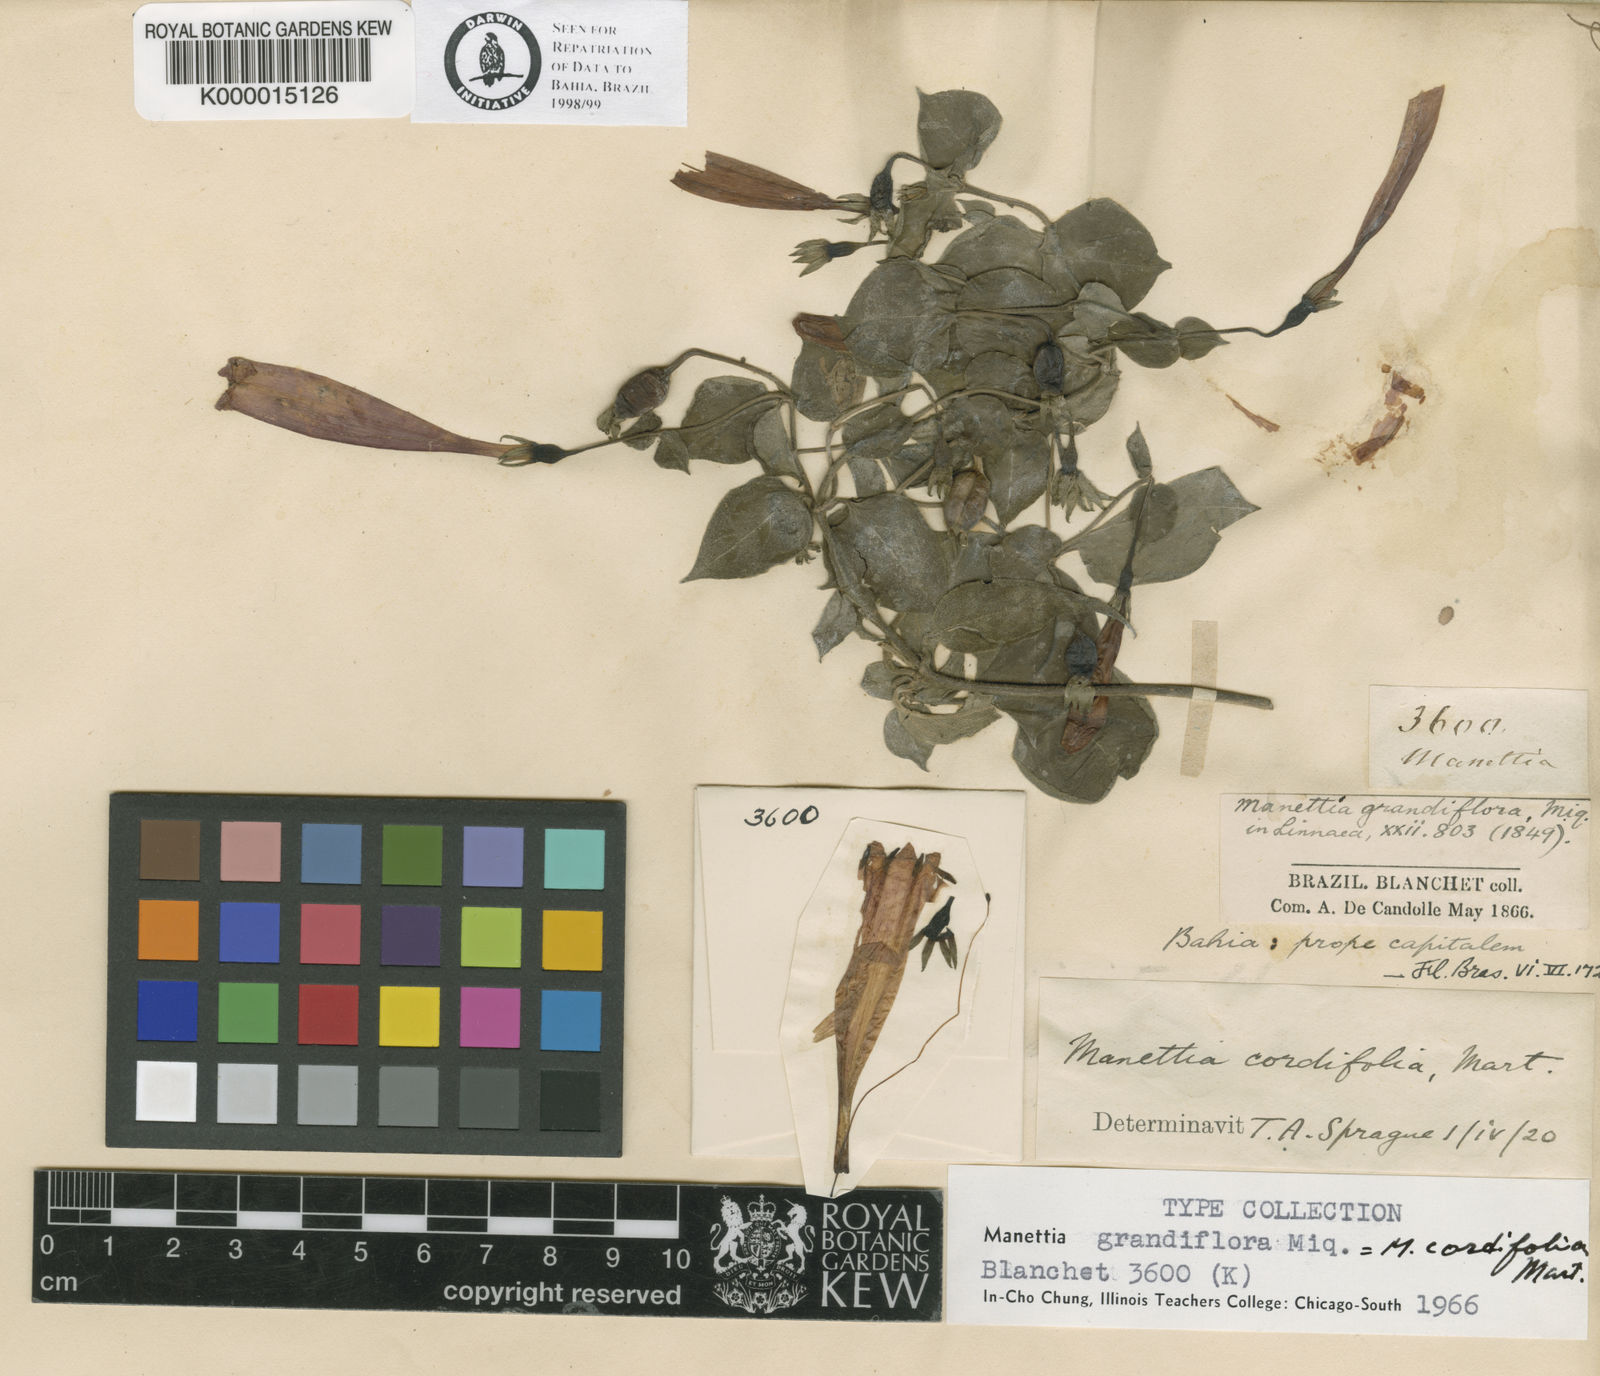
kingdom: Plantae
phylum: Tracheophyta
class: Magnoliopsida
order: Gentianales
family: Rubiaceae
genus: Manettia
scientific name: Manettia cordifolia
